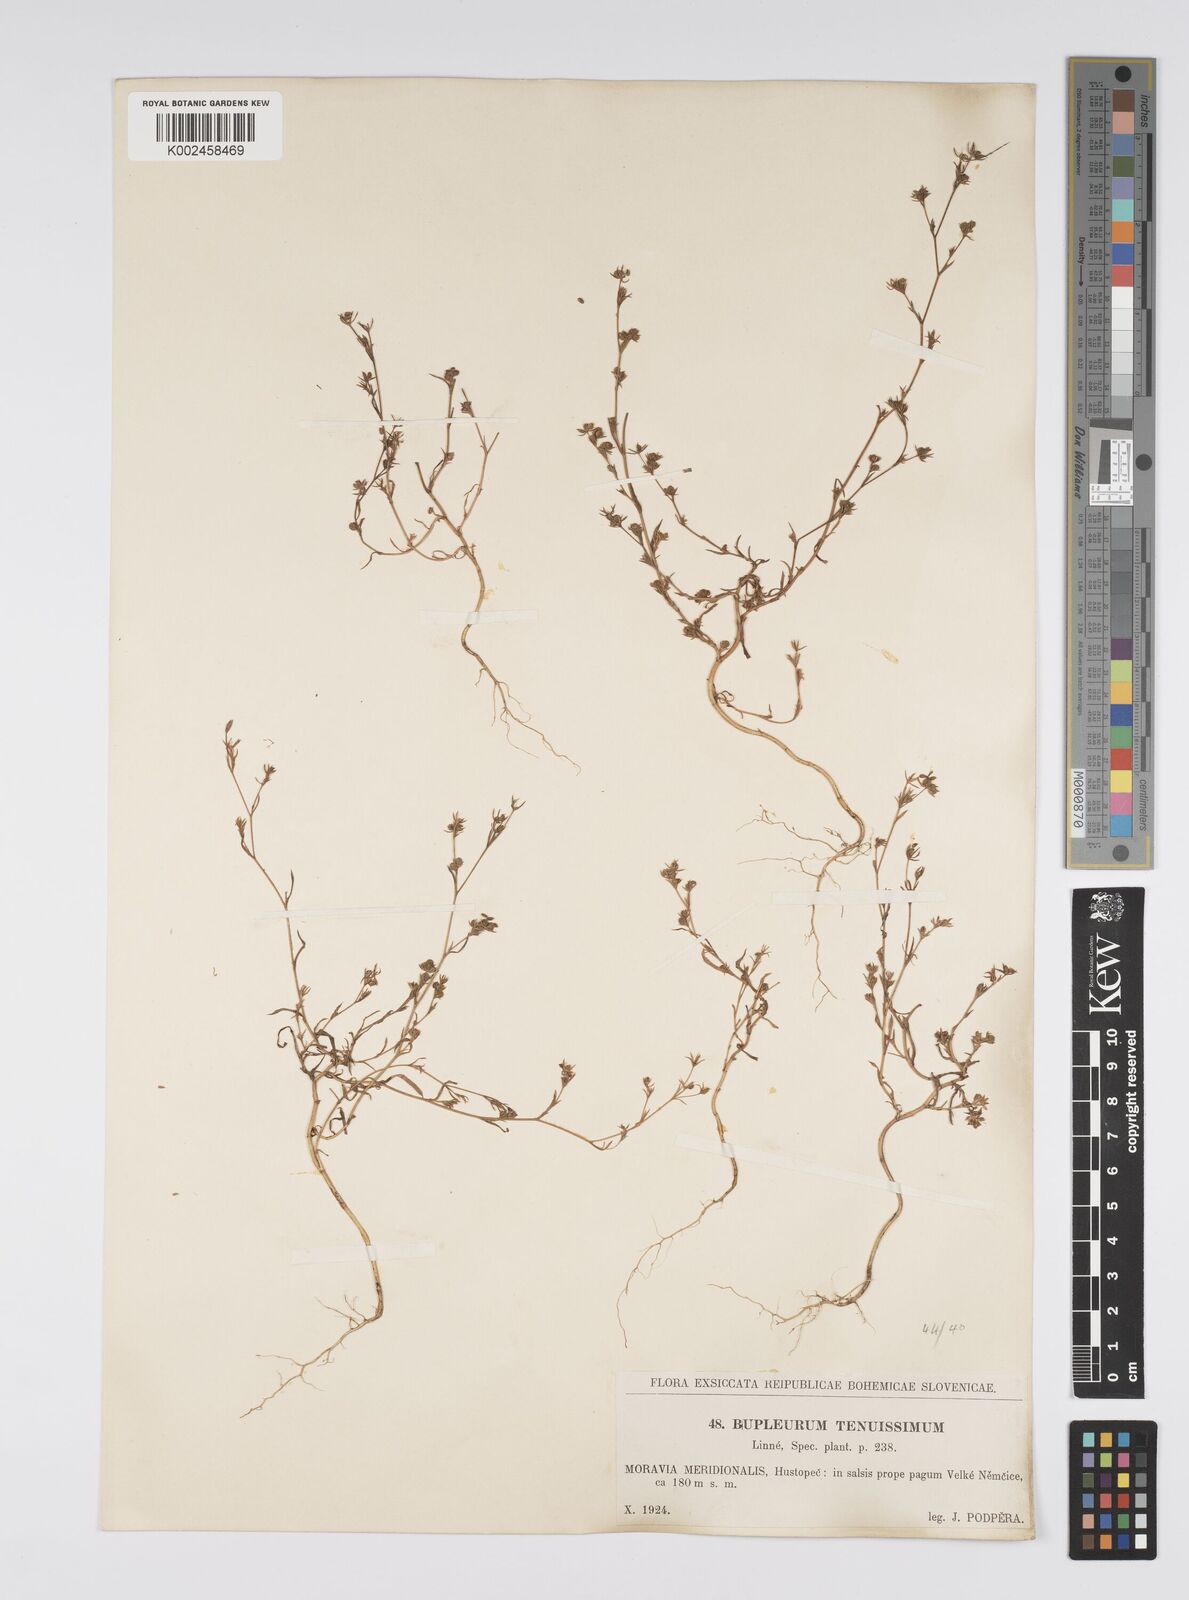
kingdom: Plantae
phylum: Tracheophyta
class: Magnoliopsida
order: Apiales
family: Apiaceae
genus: Bupleurum
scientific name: Bupleurum tenuissimum
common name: Slender hare's-ear
